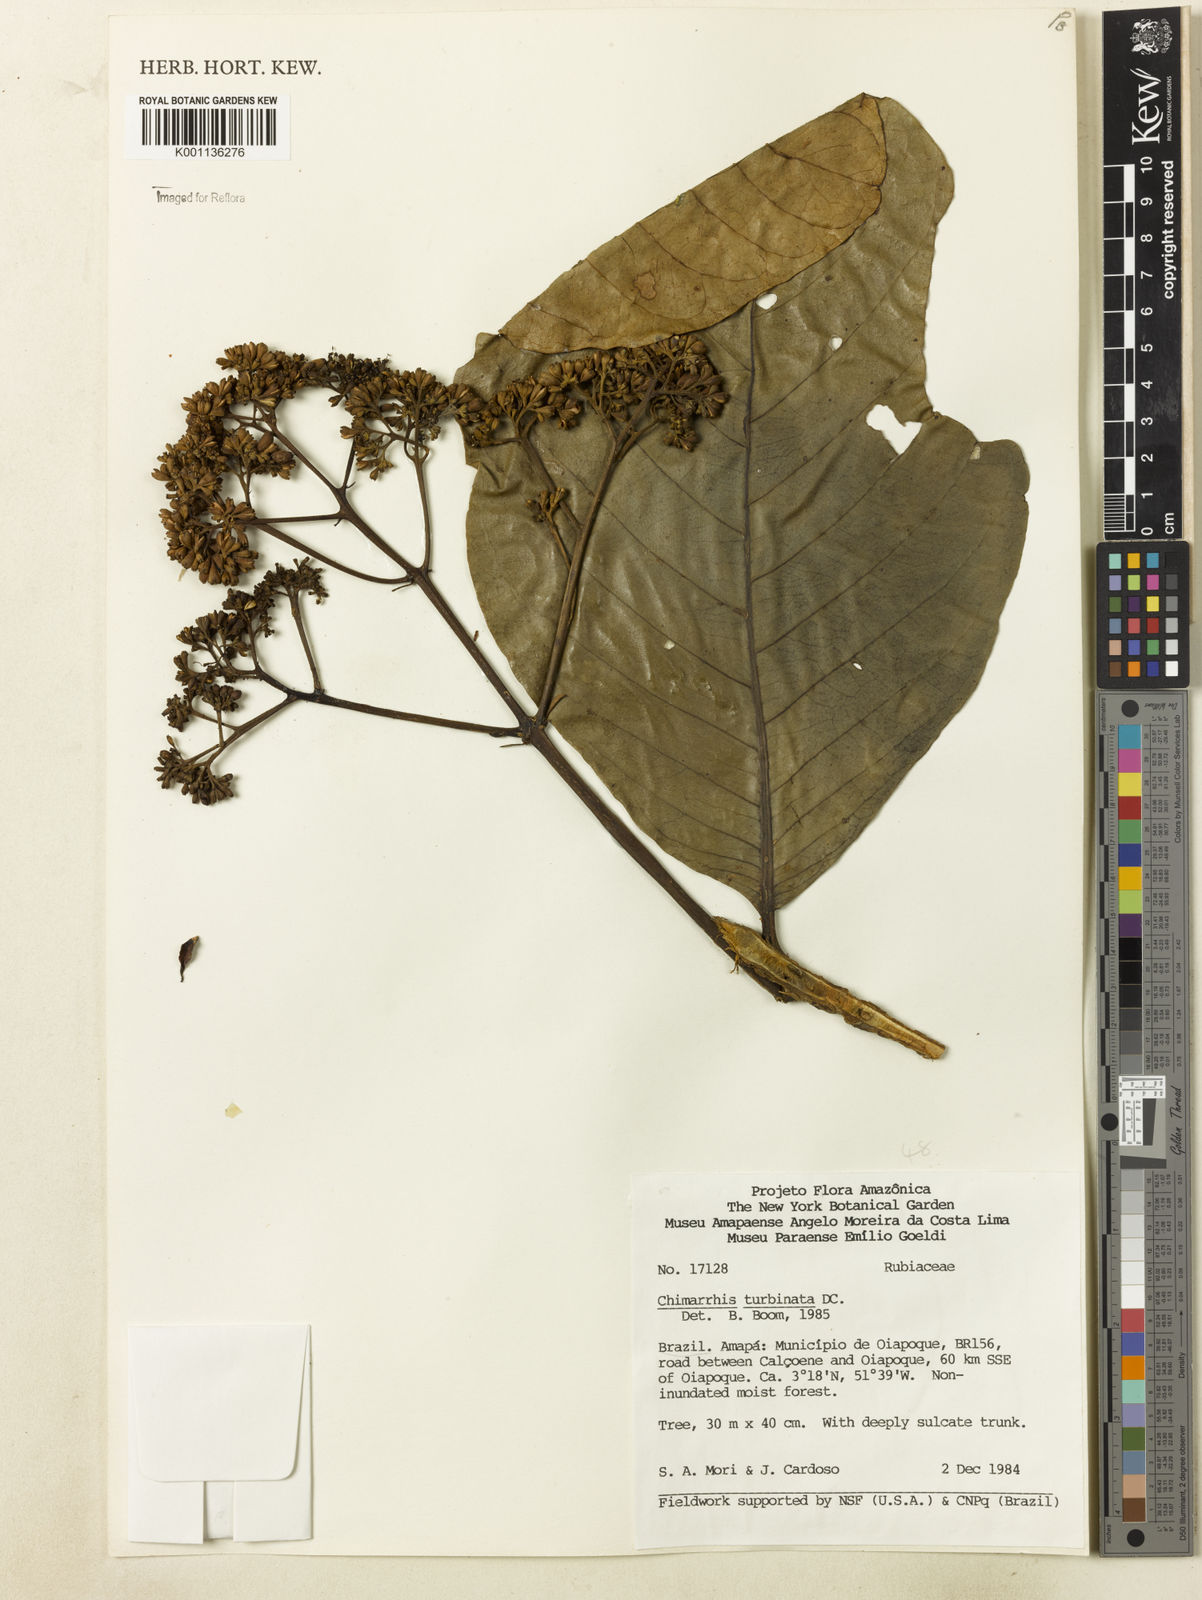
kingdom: Plantae
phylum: Tracheophyta
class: Magnoliopsida
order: Gentianales
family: Rubiaceae
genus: Chimarrhis
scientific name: Chimarrhis turbinata
